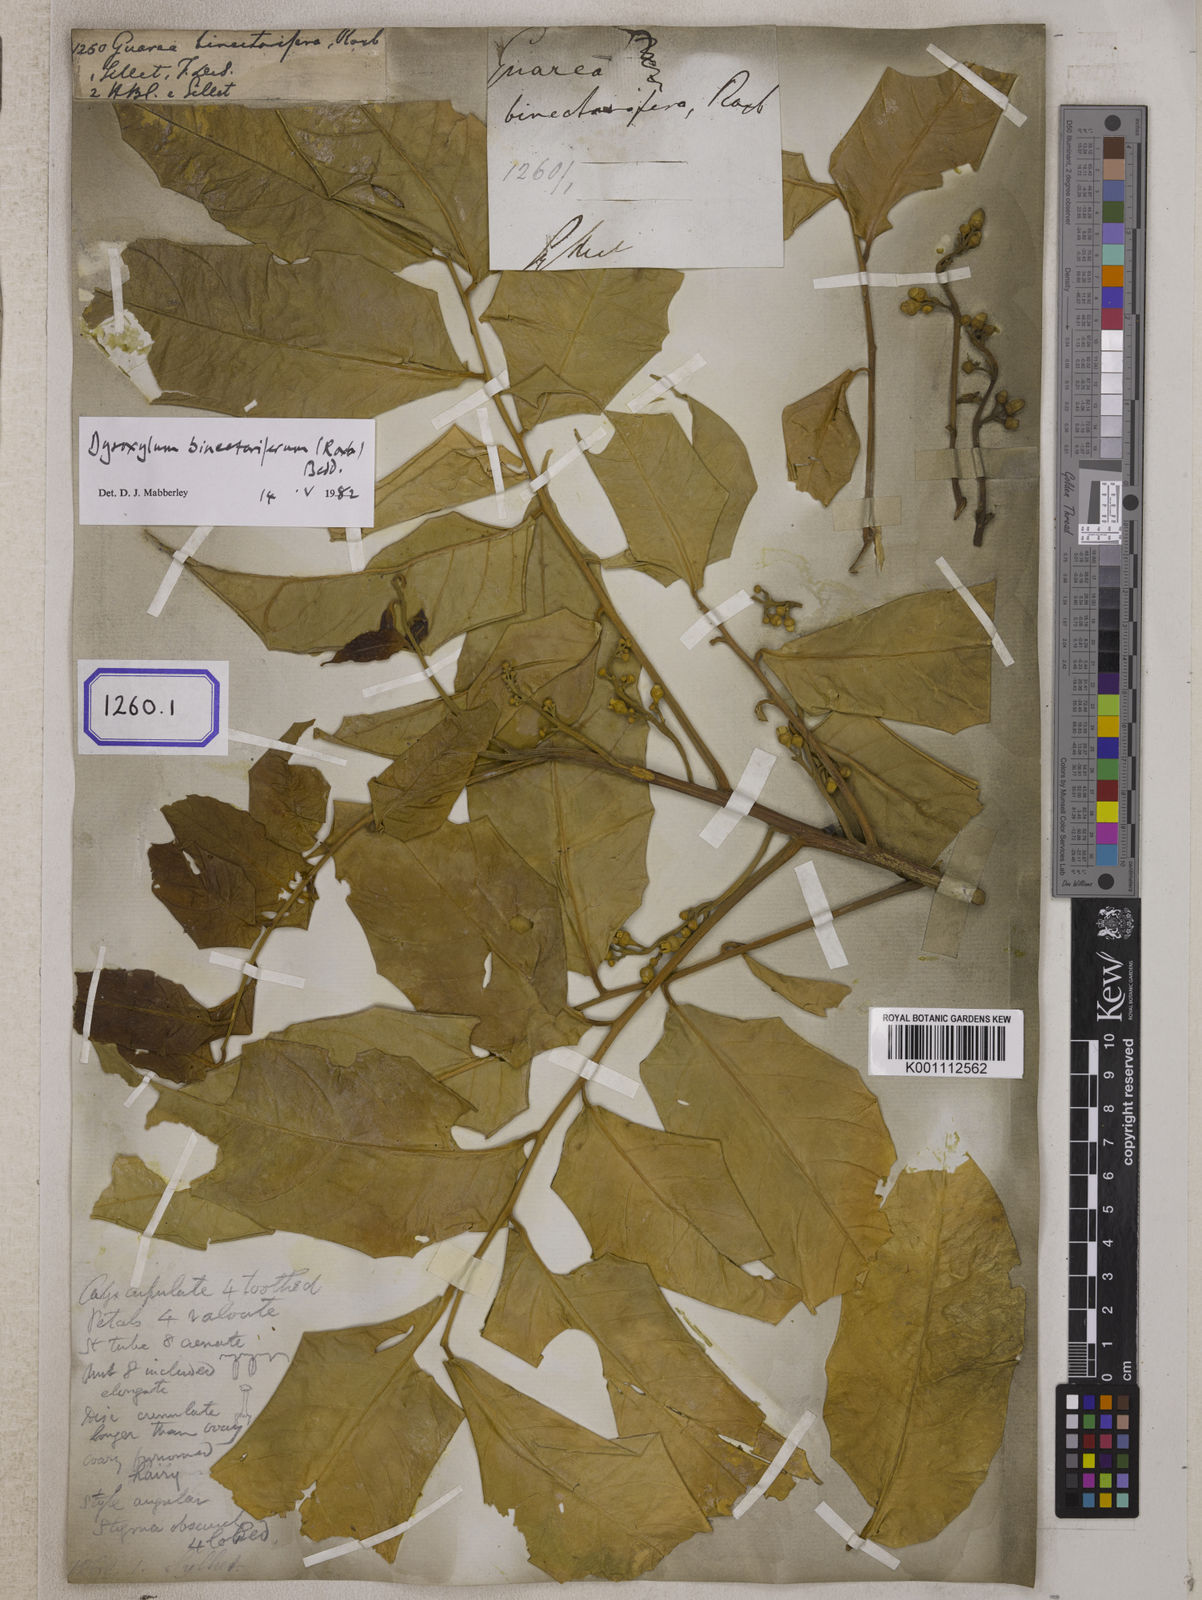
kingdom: Plantae
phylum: Tracheophyta
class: Magnoliopsida
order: Sapindales
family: Meliaceae
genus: Dysoxylum
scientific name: Dysoxylum gotadhora
